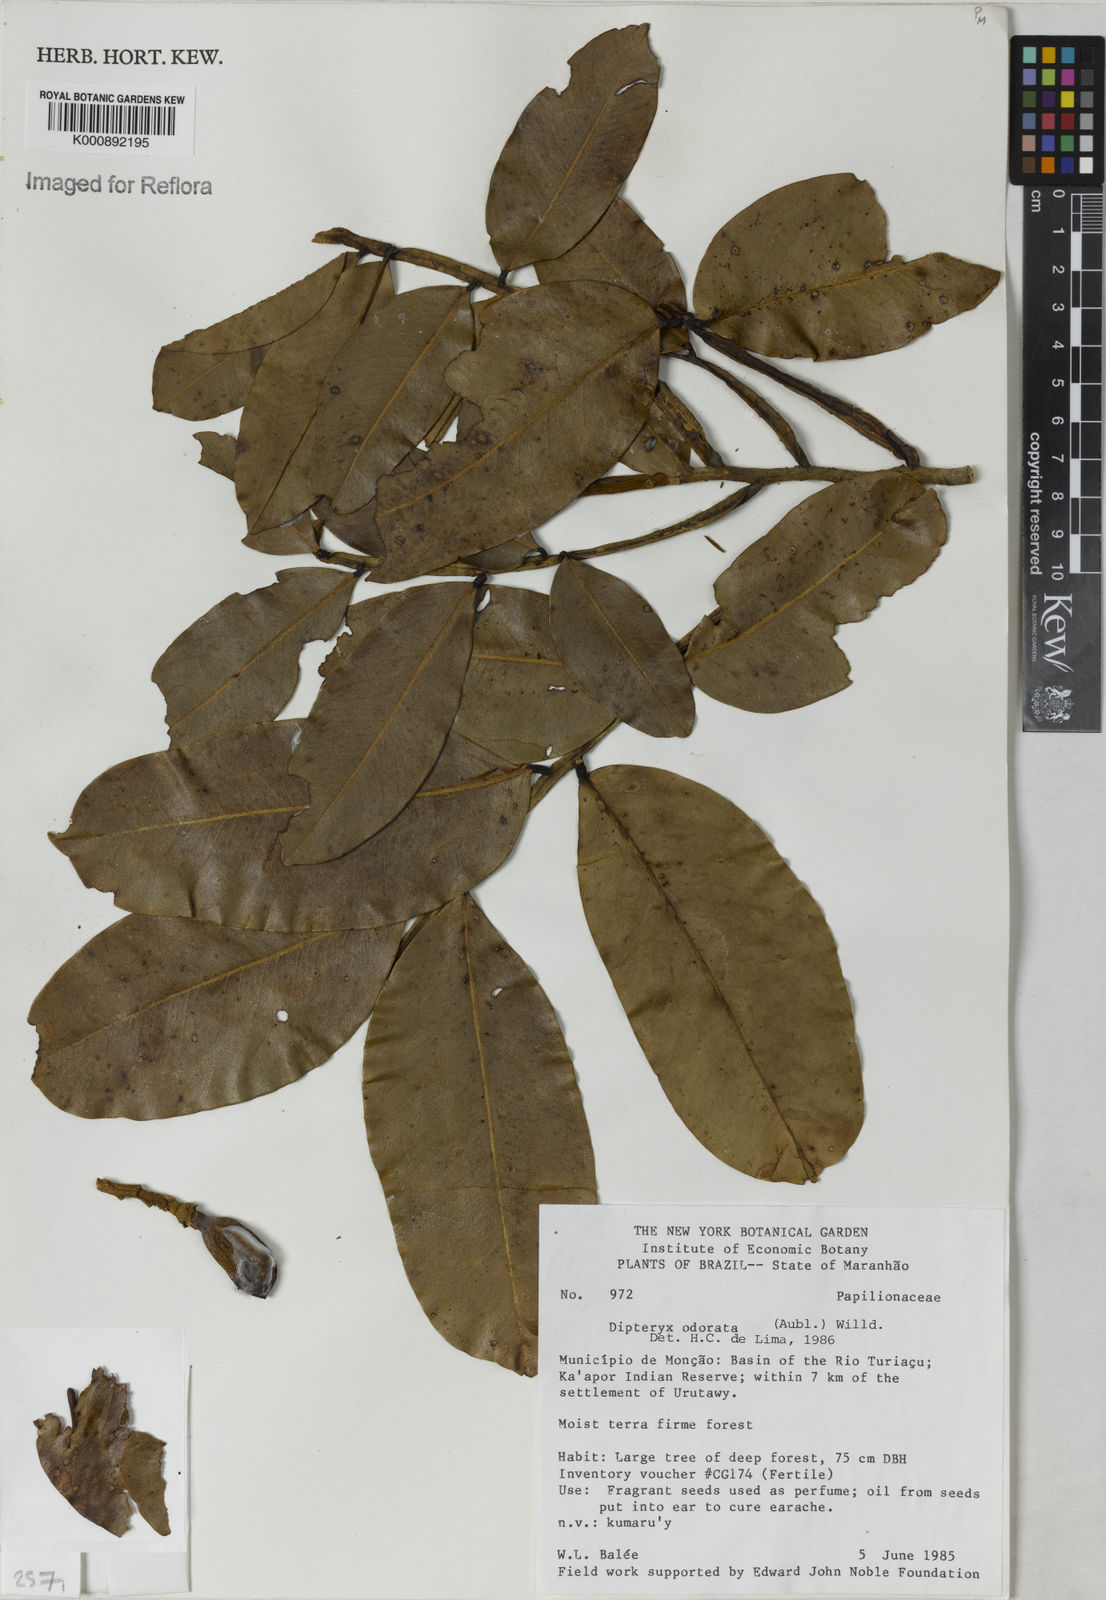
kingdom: Plantae
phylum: Tracheophyta
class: Magnoliopsida
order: Fabales
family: Fabaceae
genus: Dipteryx
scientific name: Dipteryx
